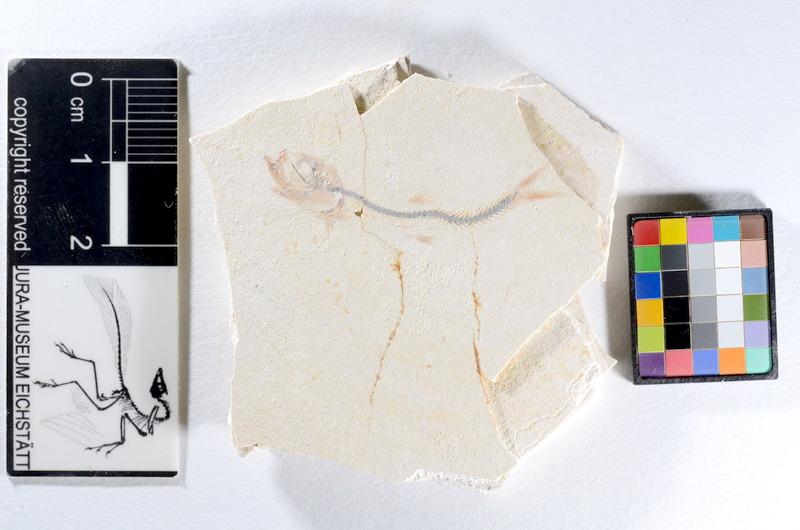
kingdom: Animalia
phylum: Chordata
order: Salmoniformes
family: Orthogonikleithridae
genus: Orthogonikleithrus
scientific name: Orthogonikleithrus hoelli
